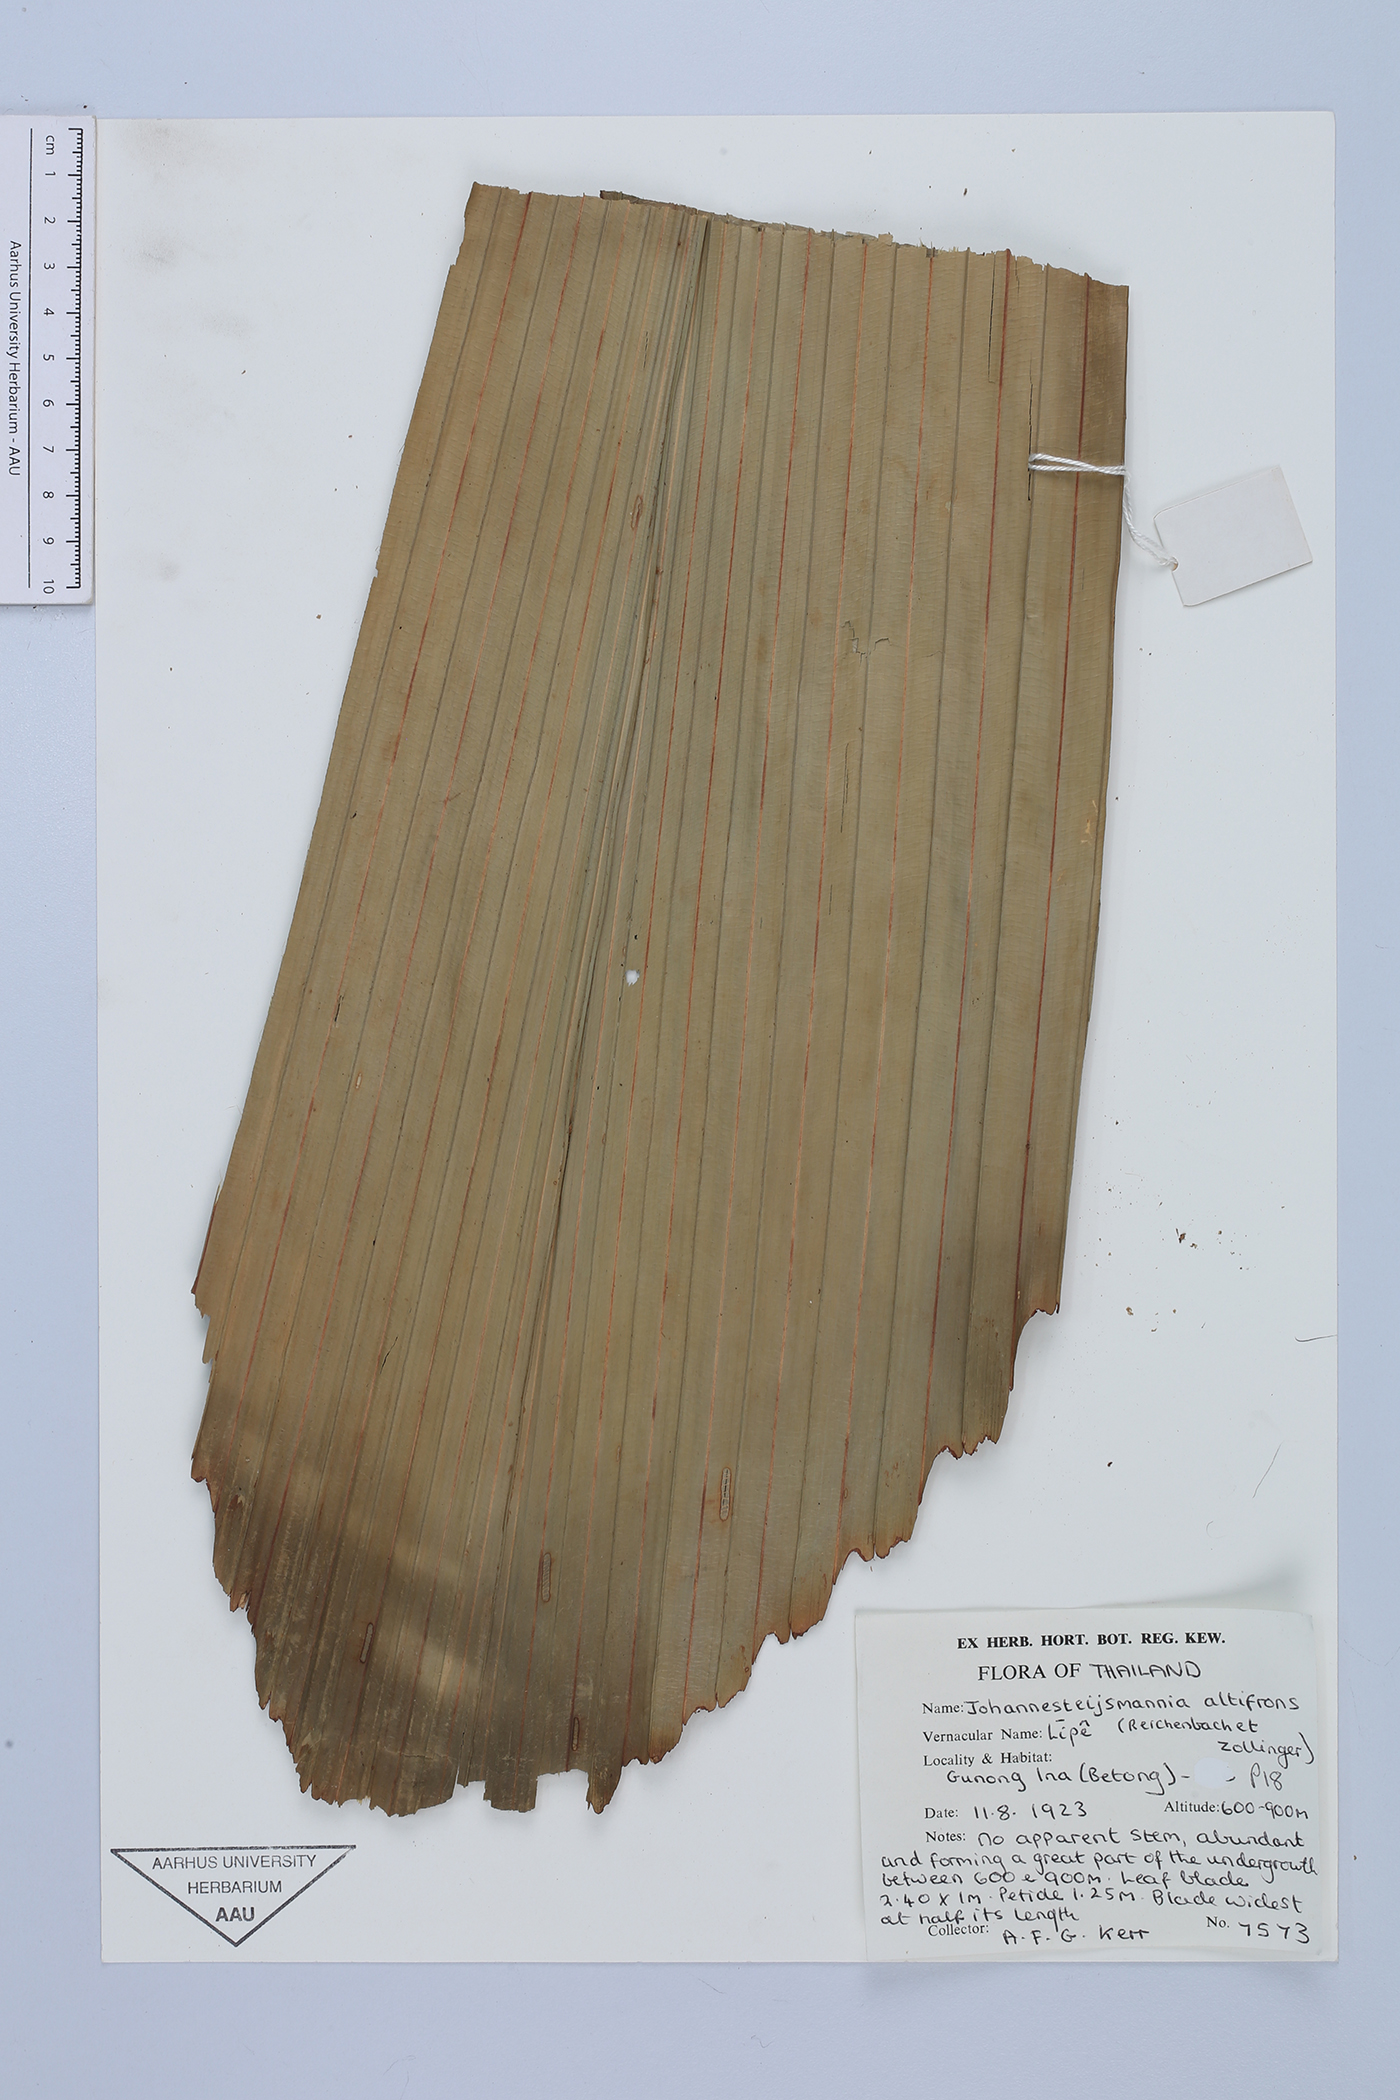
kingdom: Plantae
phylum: Tracheophyta
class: Liliopsida
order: Arecales
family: Arecaceae
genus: Johannesteijsmannia
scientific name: Johannesteijsmannia altifrons
